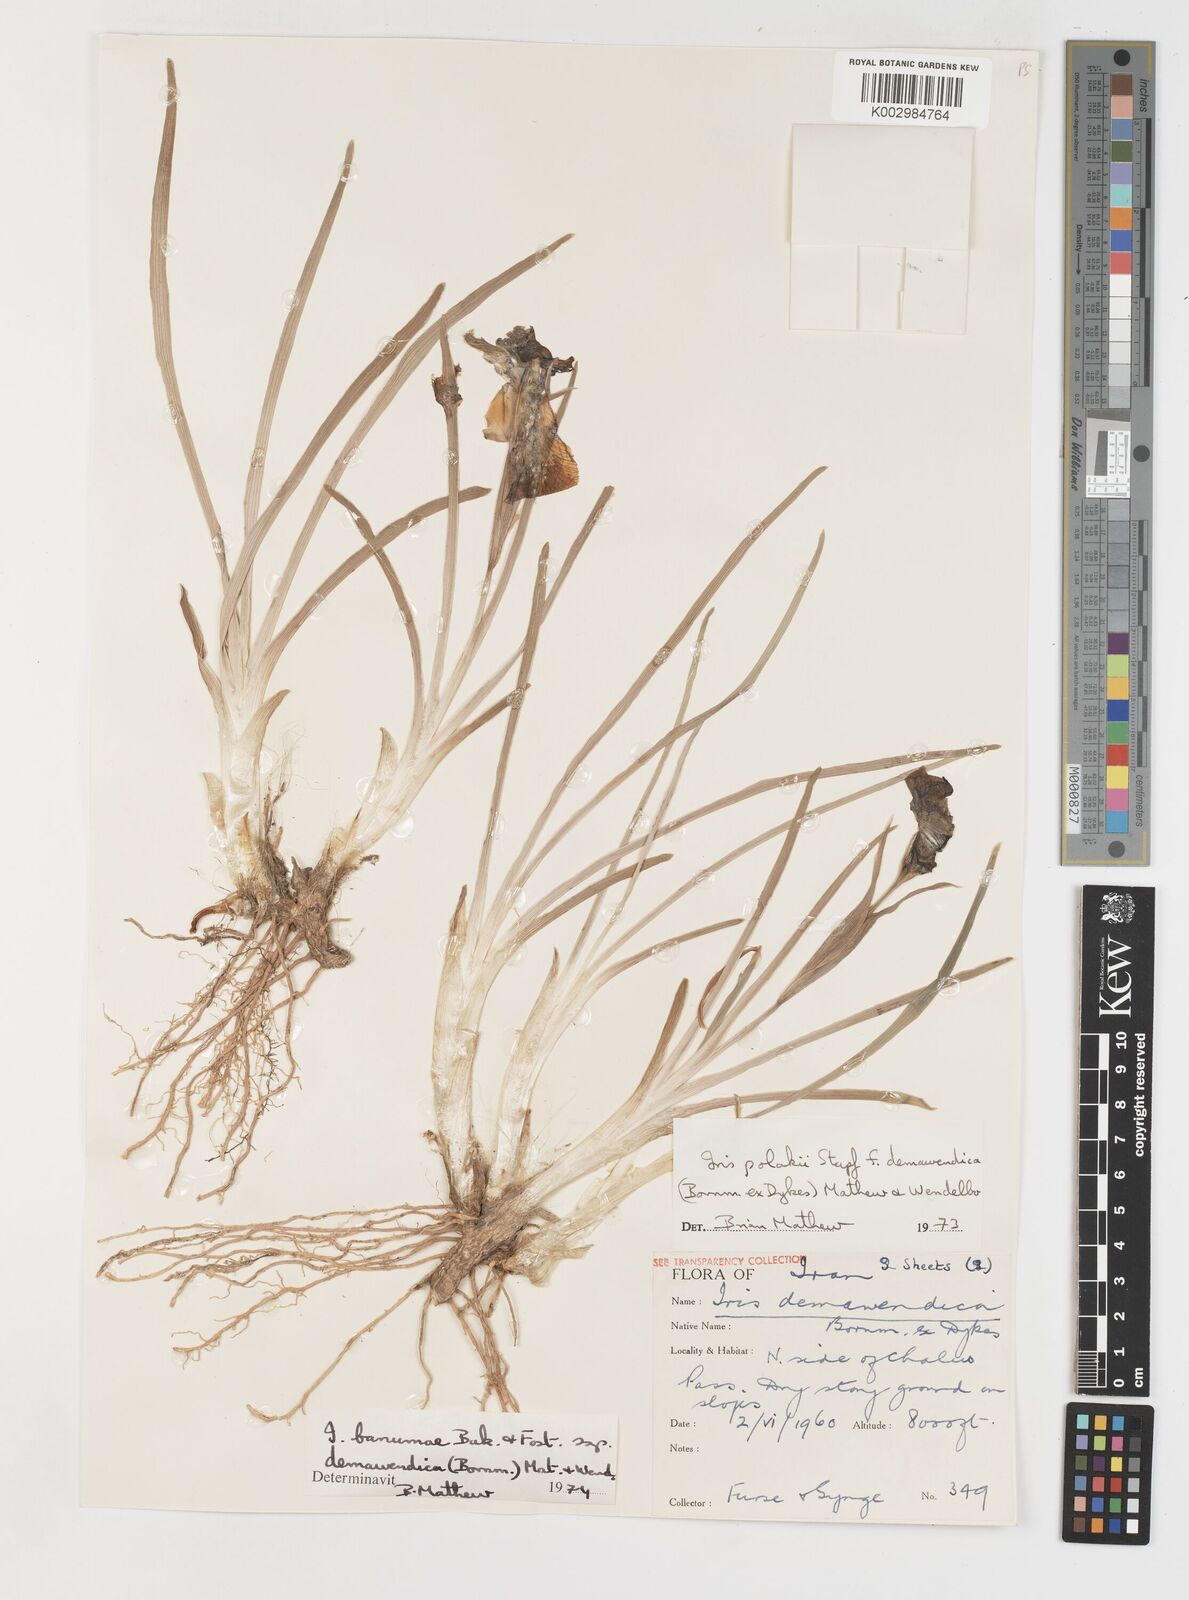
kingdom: Plantae
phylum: Tracheophyta
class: Liliopsida
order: Asparagales
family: Iridaceae
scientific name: Iridaceae
